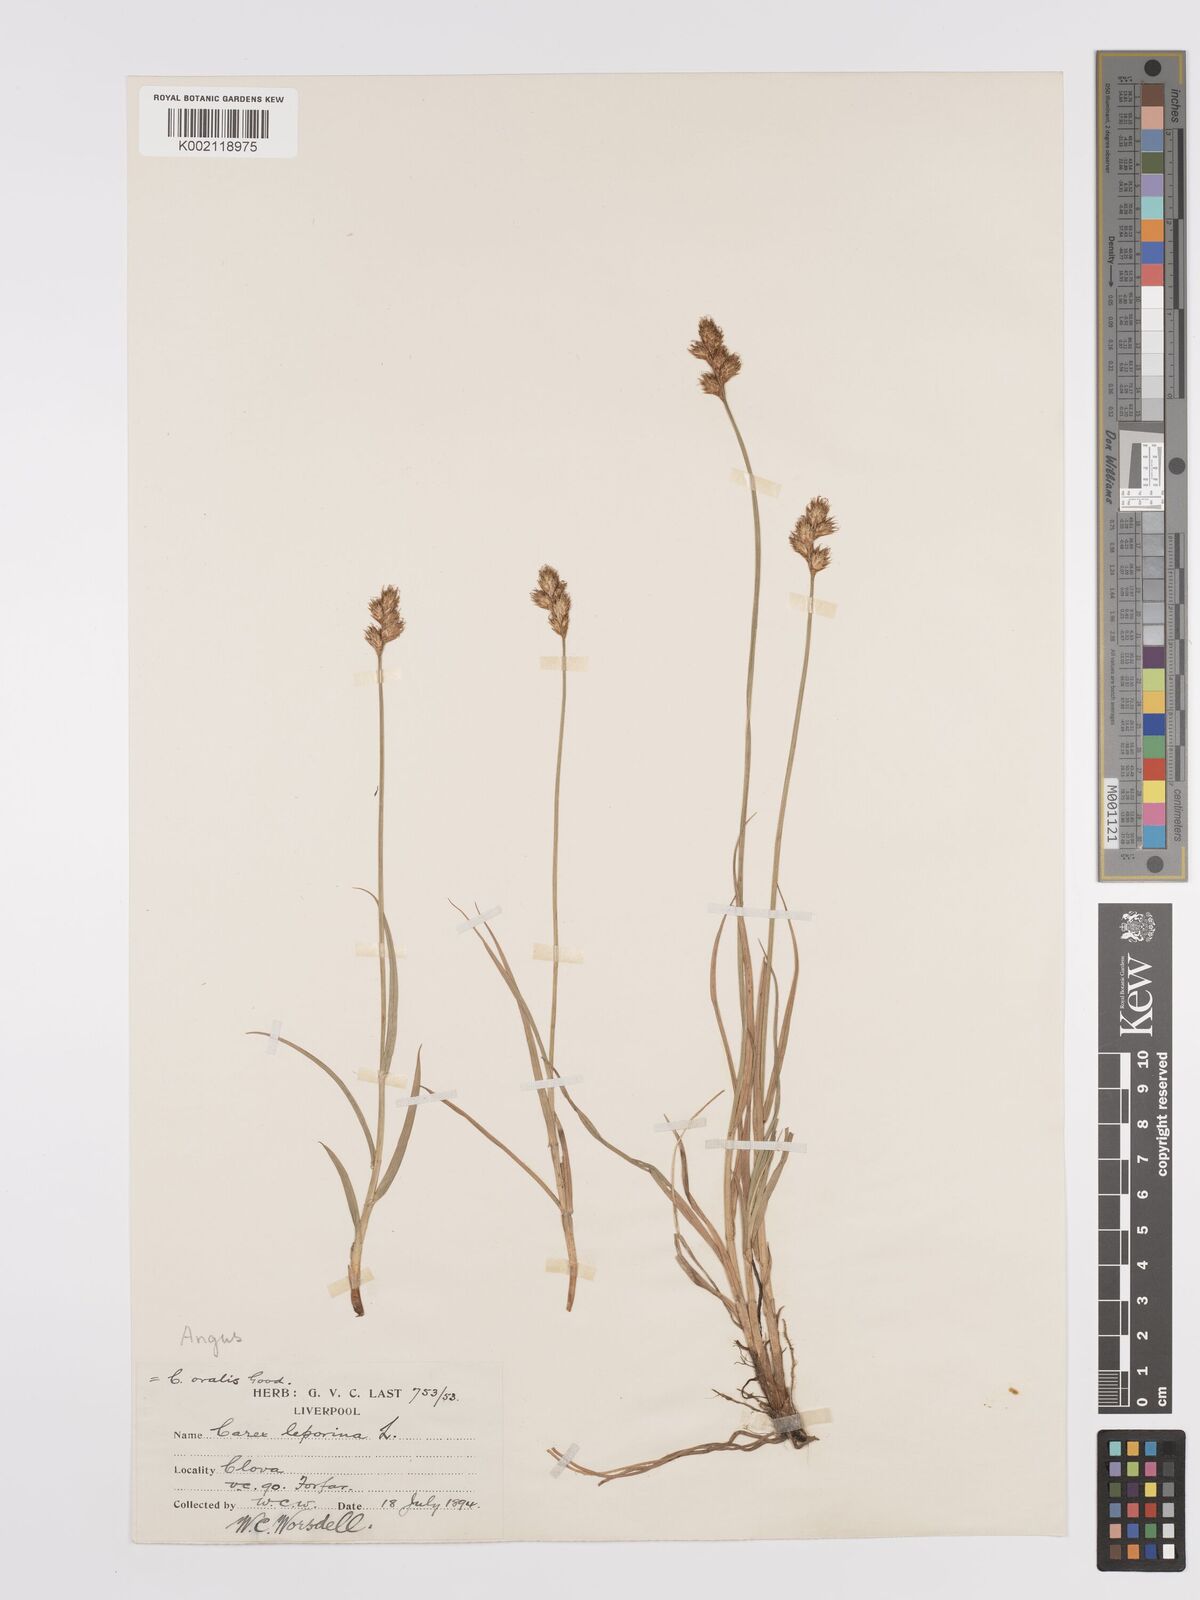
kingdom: Plantae
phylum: Tracheophyta
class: Liliopsida
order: Poales
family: Cyperaceae
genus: Carex
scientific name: Carex leporina
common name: Oval sedge
